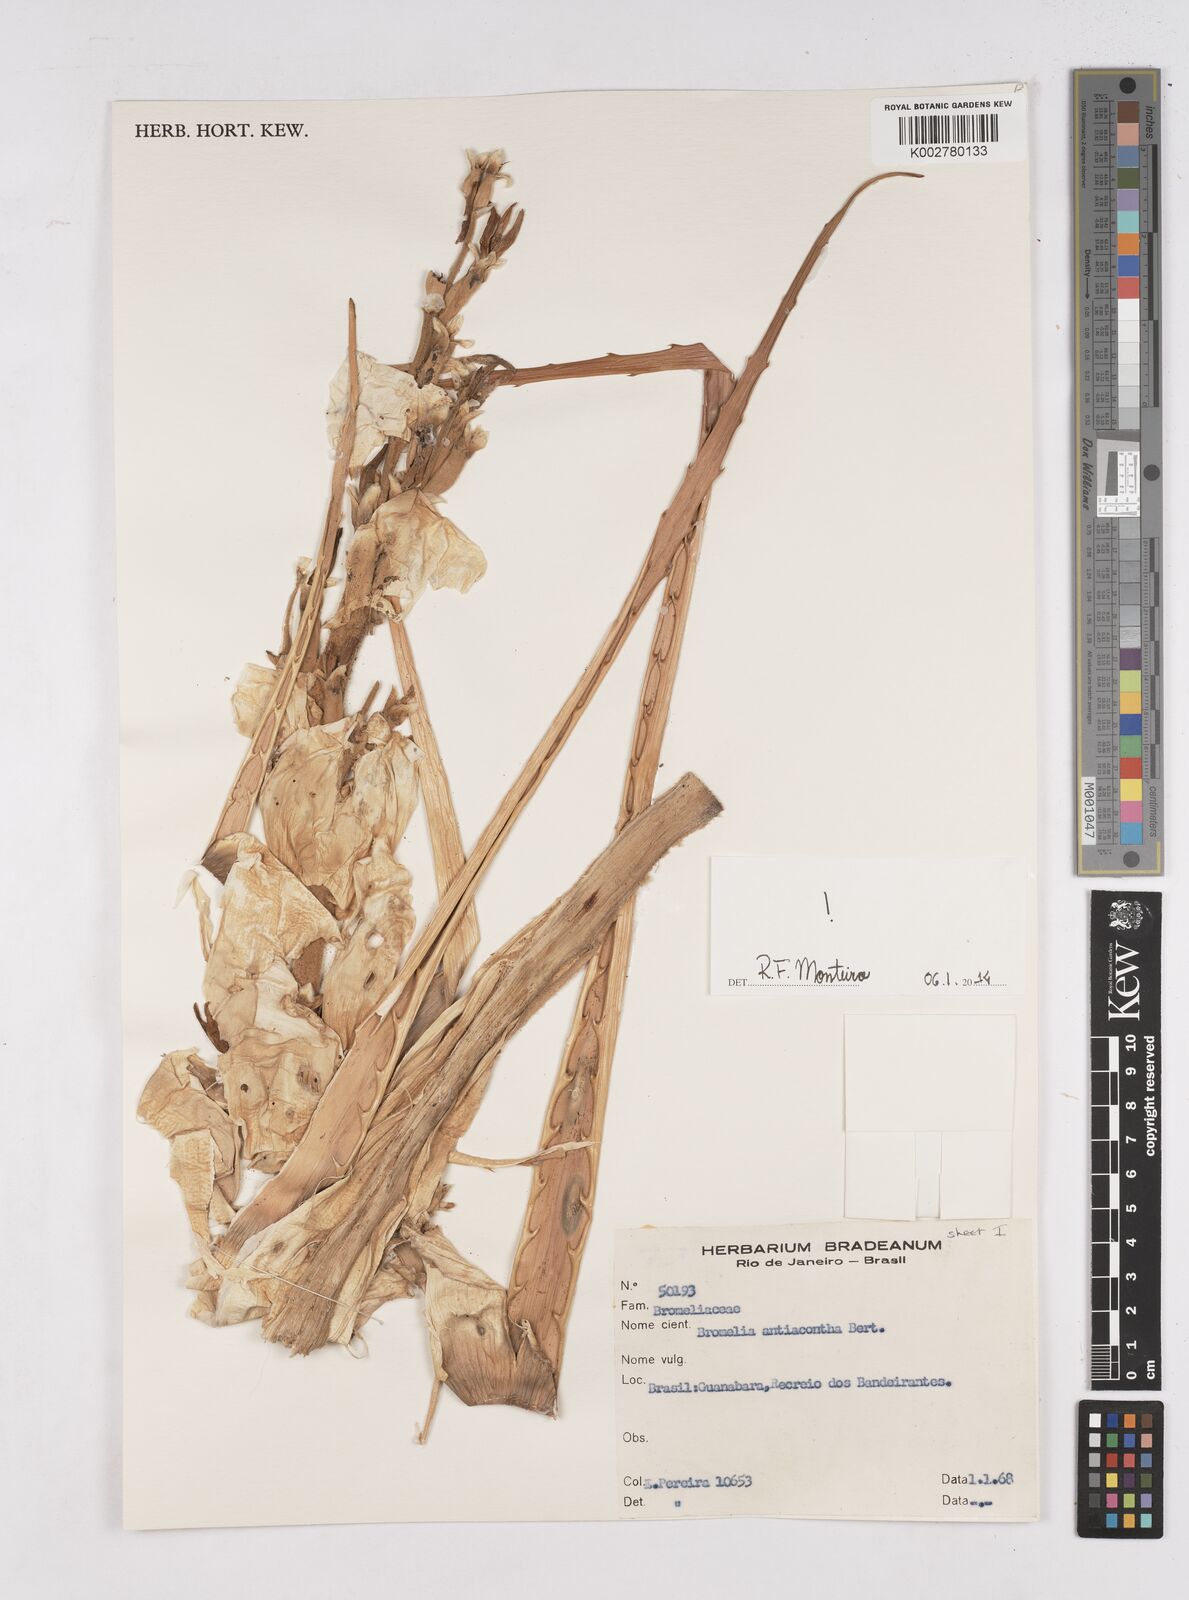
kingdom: Plantae
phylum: Tracheophyta
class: Liliopsida
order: Poales
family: Bromeliaceae
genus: Bromelia
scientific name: Bromelia antiacantha
